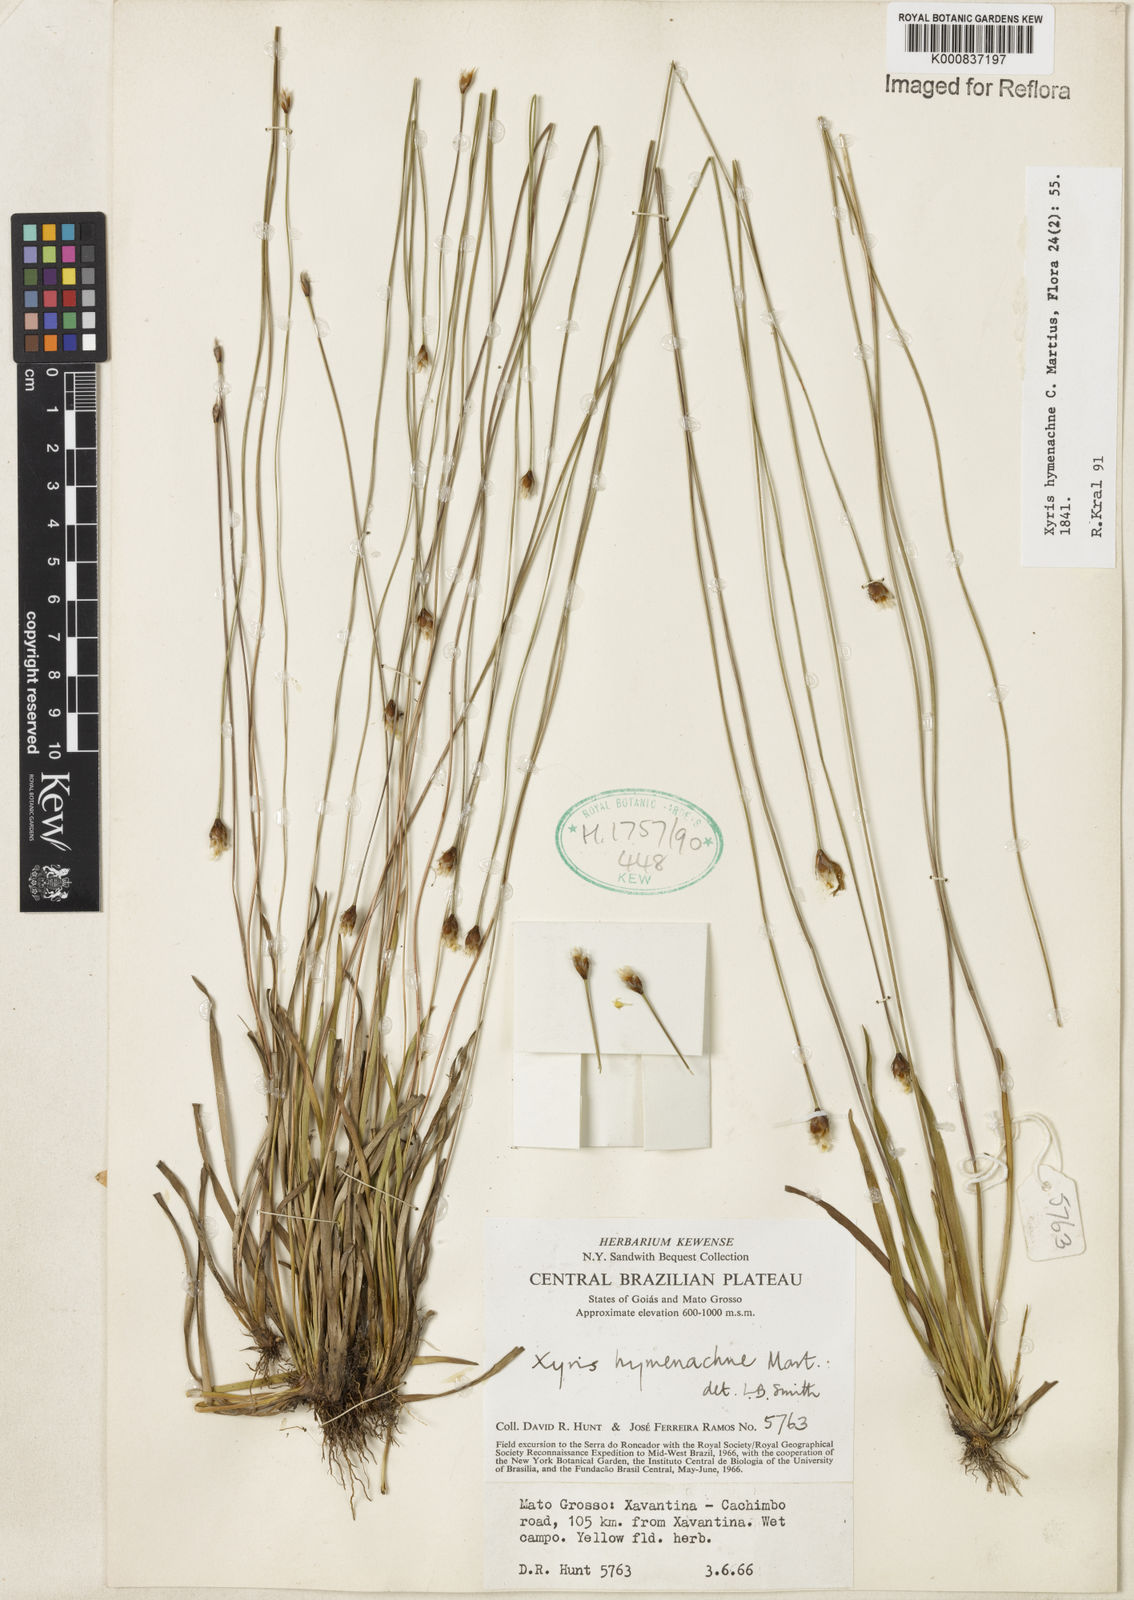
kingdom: Plantae
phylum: Tracheophyta
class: Liliopsida
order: Poales
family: Xyridaceae
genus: Xyris
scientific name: Xyris hymenachne
